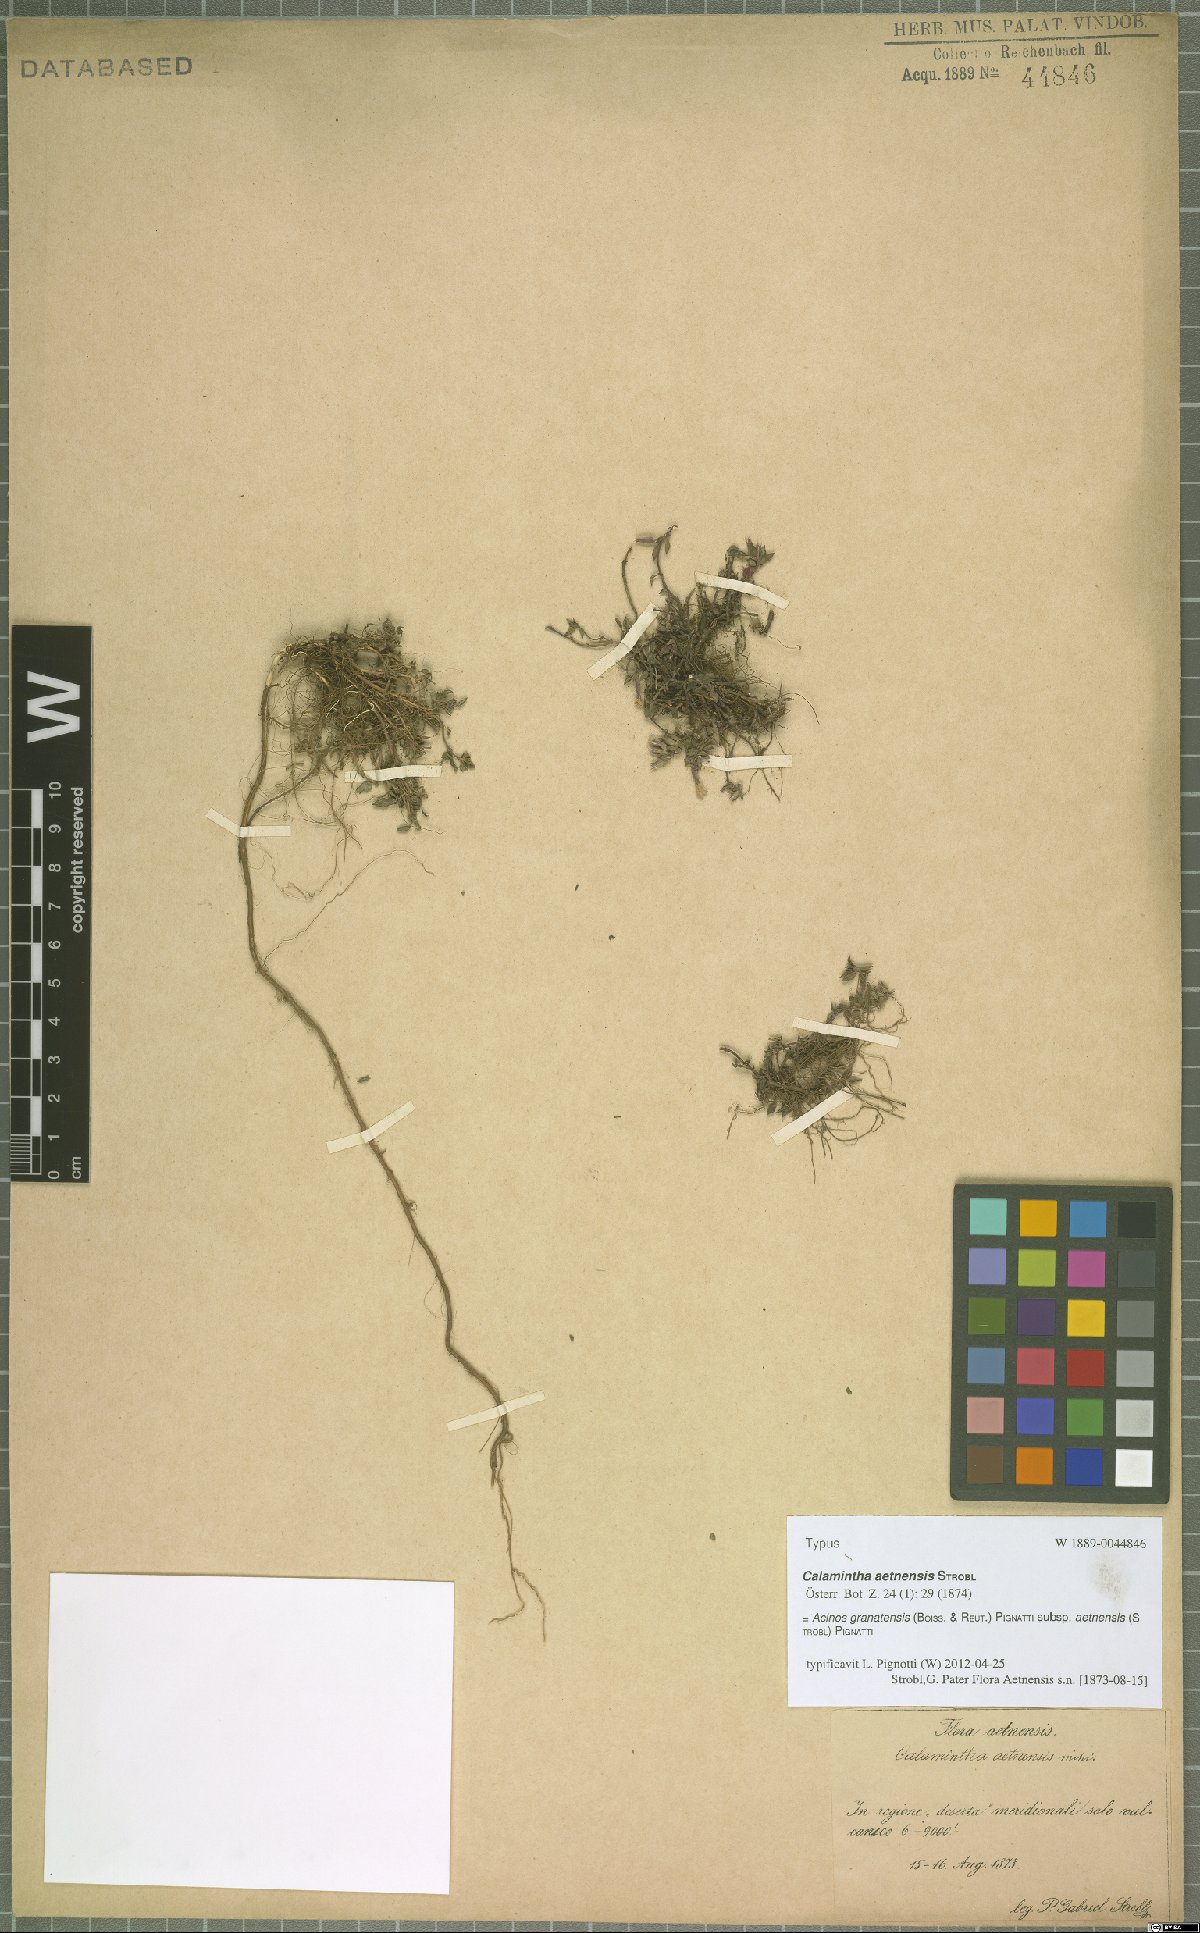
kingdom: Plantae
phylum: Tracheophyta
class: Magnoliopsida
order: Lamiales
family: Lamiaceae
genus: Clinopodium
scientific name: Clinopodium alpinum
